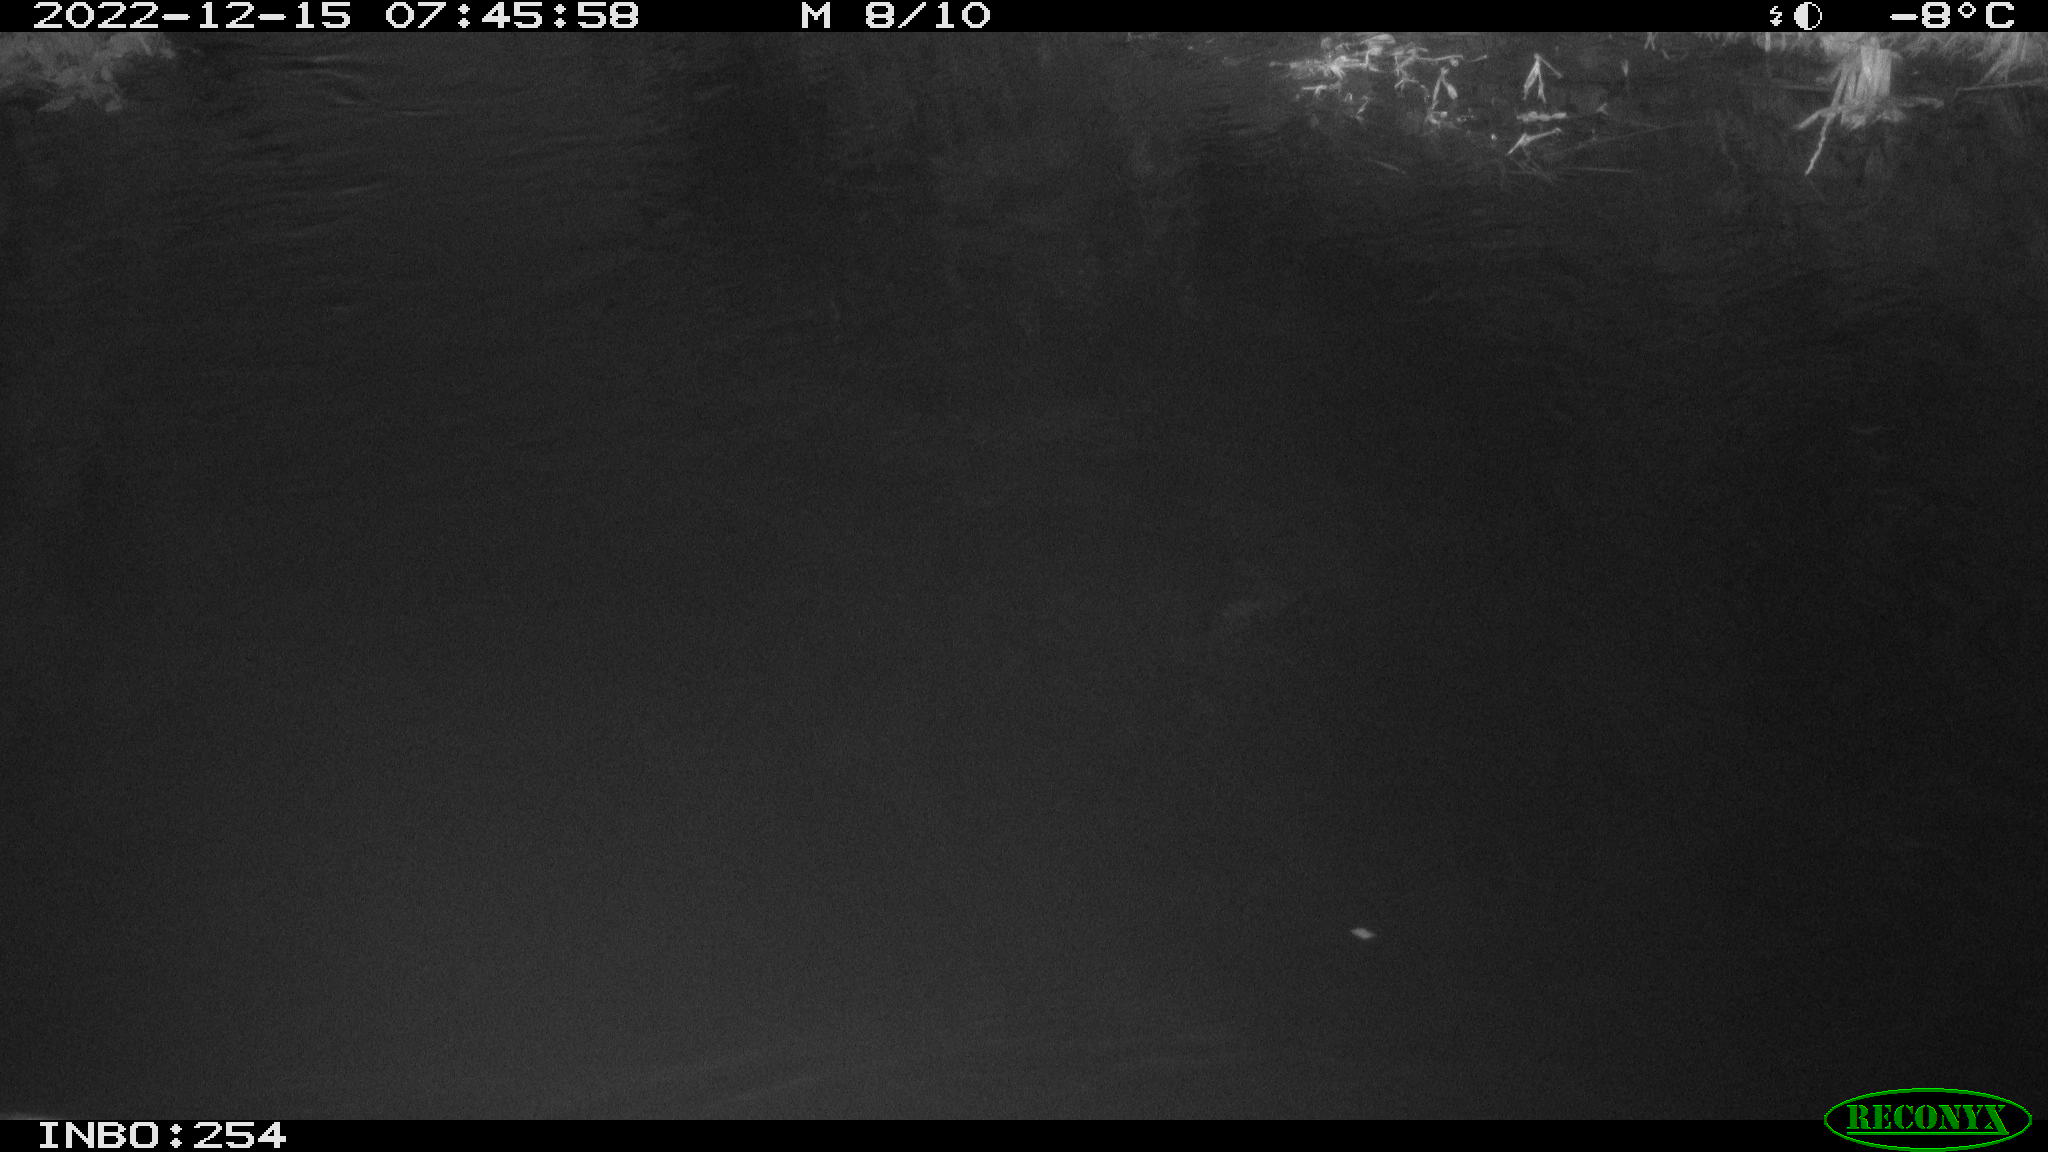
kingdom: Animalia
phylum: Chordata
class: Aves
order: Anseriformes
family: Anatidae
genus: Anas
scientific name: Anas
